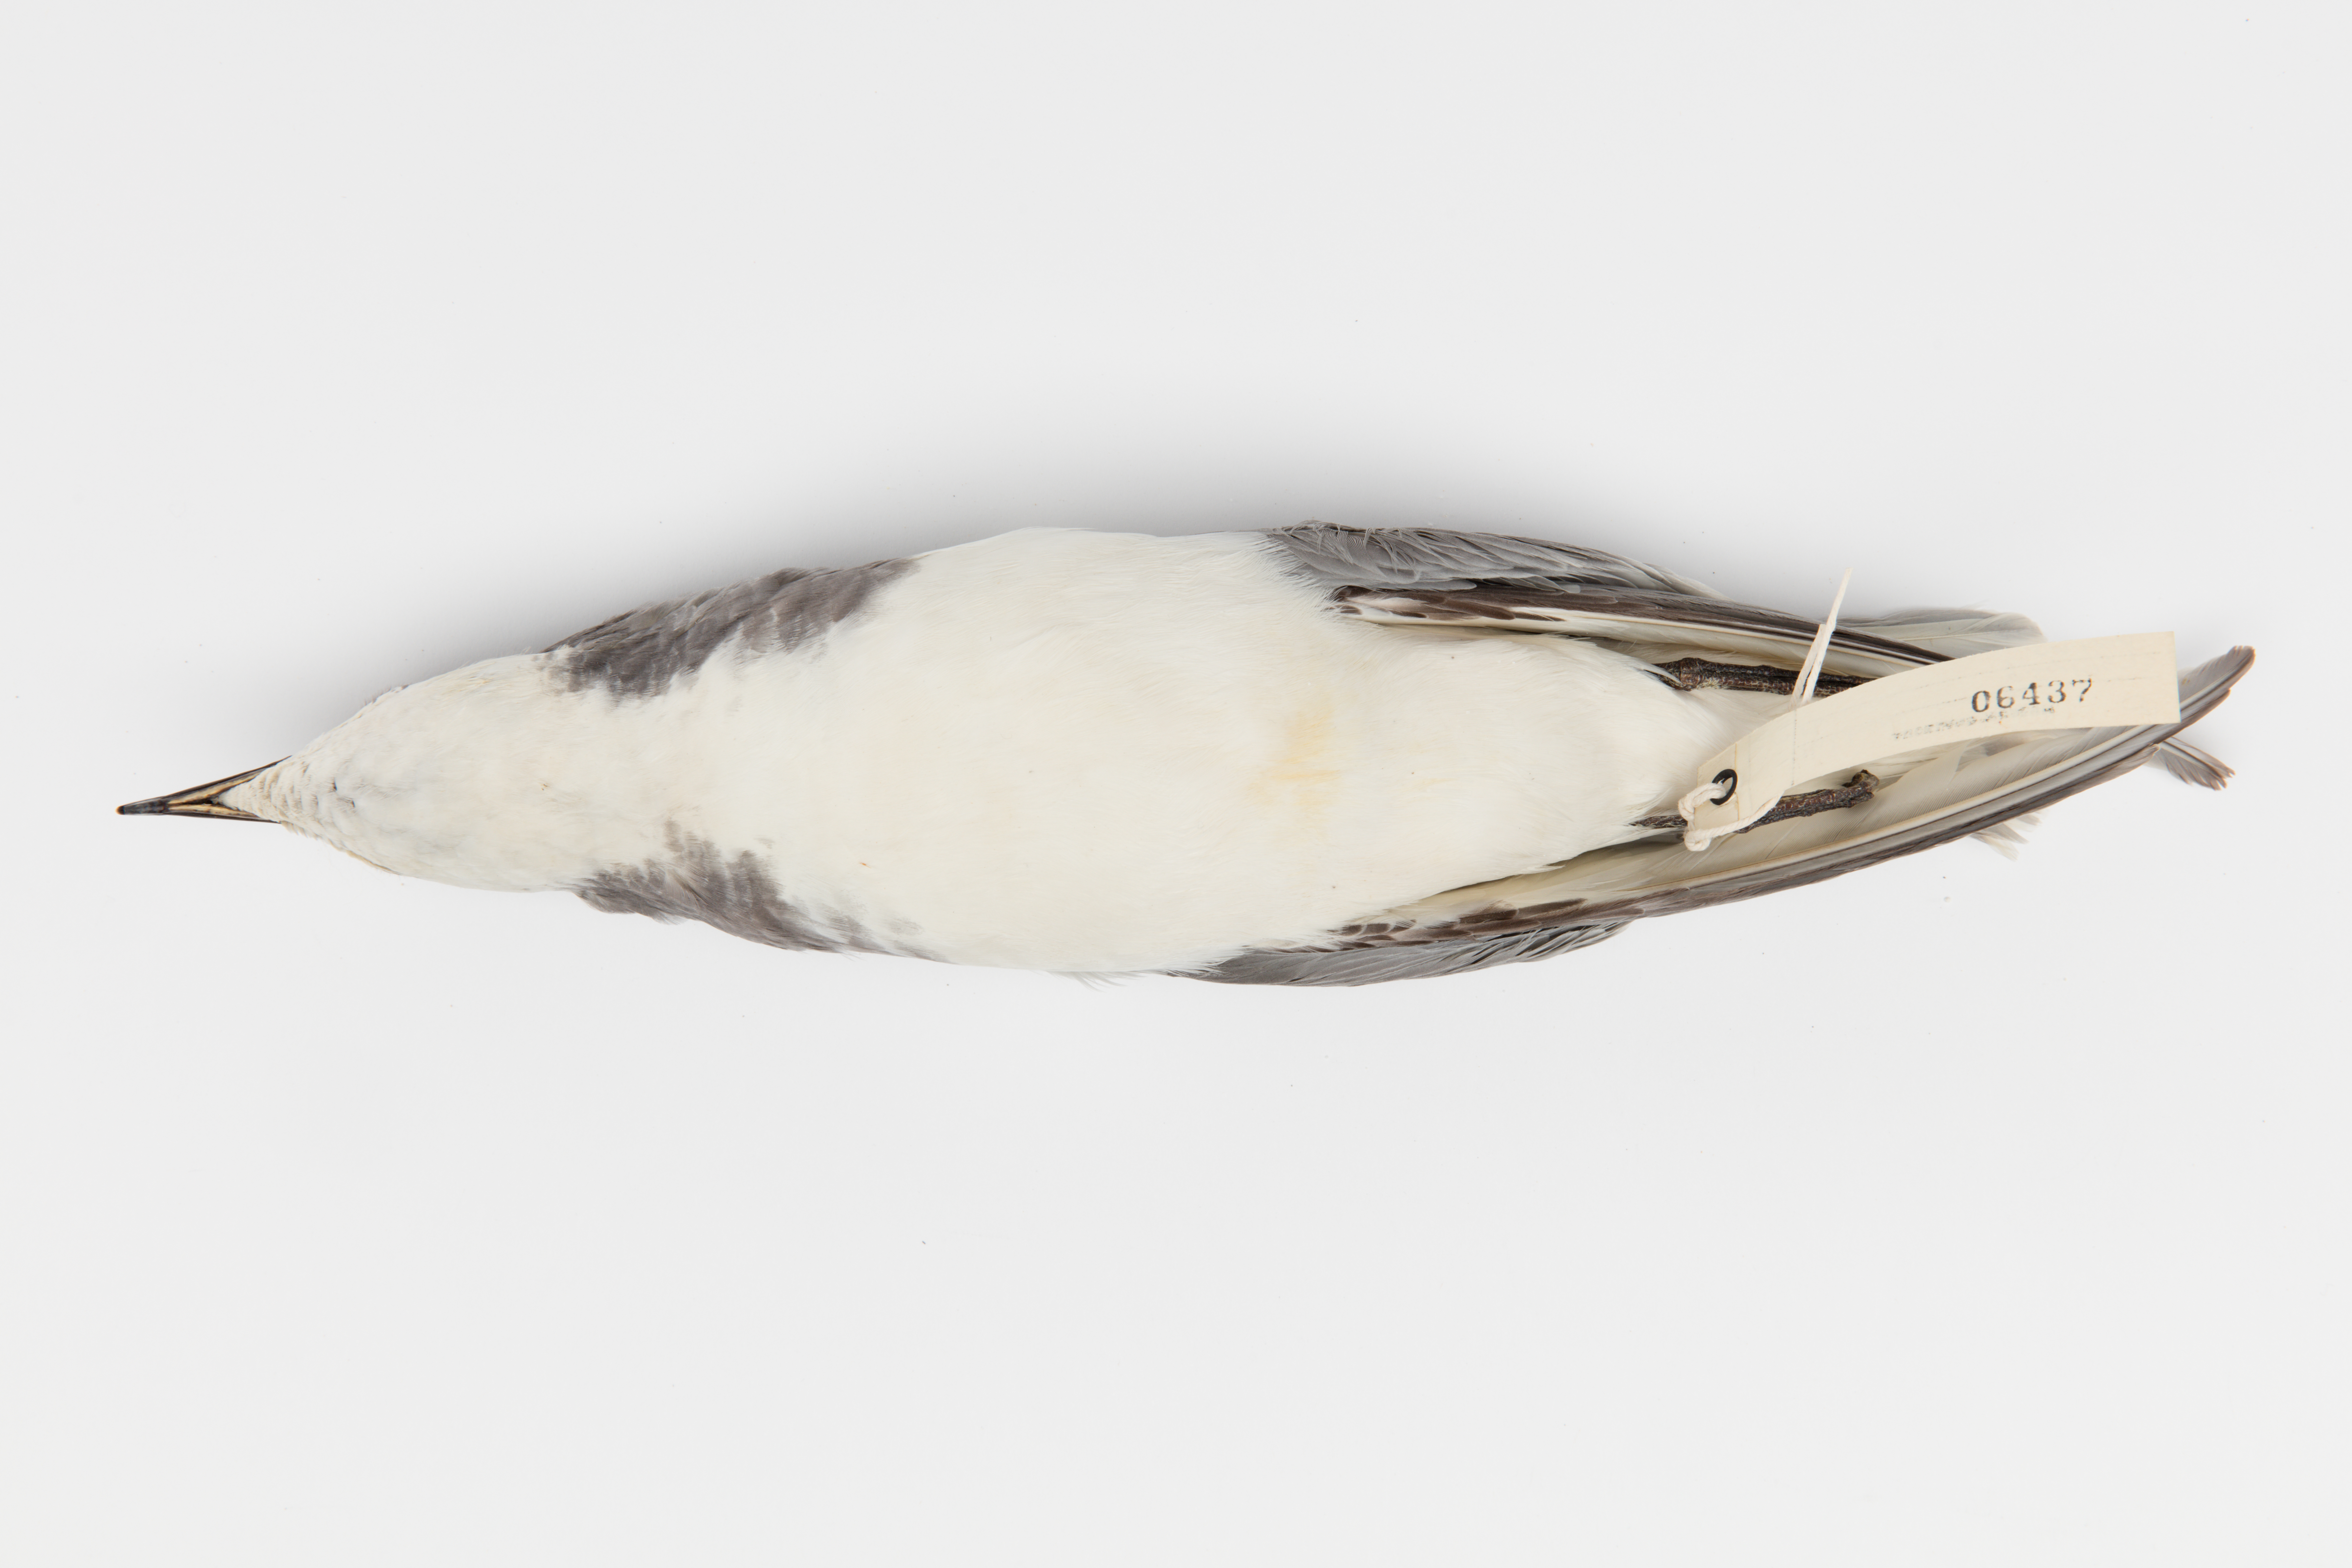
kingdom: Animalia
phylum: Chordata
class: Aves
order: Procellariiformes
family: Procellariidae
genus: Halobaena
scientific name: Halobaena caerulea
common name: Blue petrel
